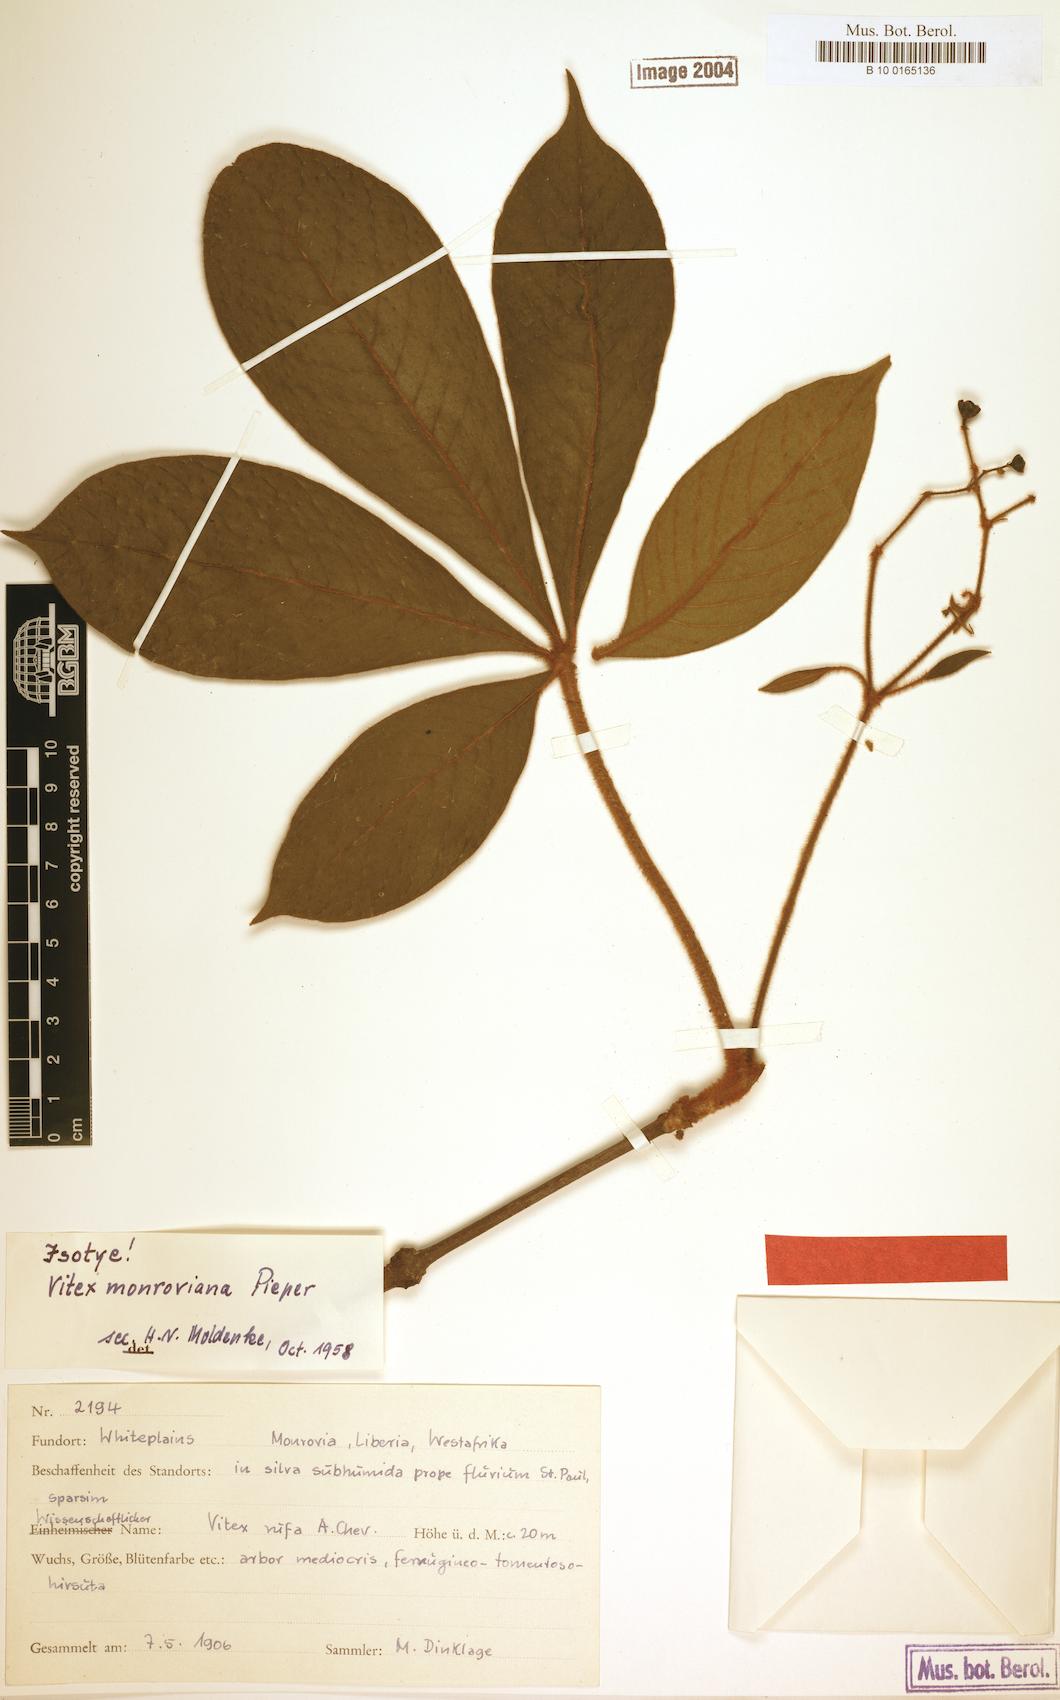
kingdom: Plantae
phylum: Tracheophyta
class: Magnoliopsida
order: Lamiales
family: Lamiaceae
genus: Vitex
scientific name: Vitex congolensis
